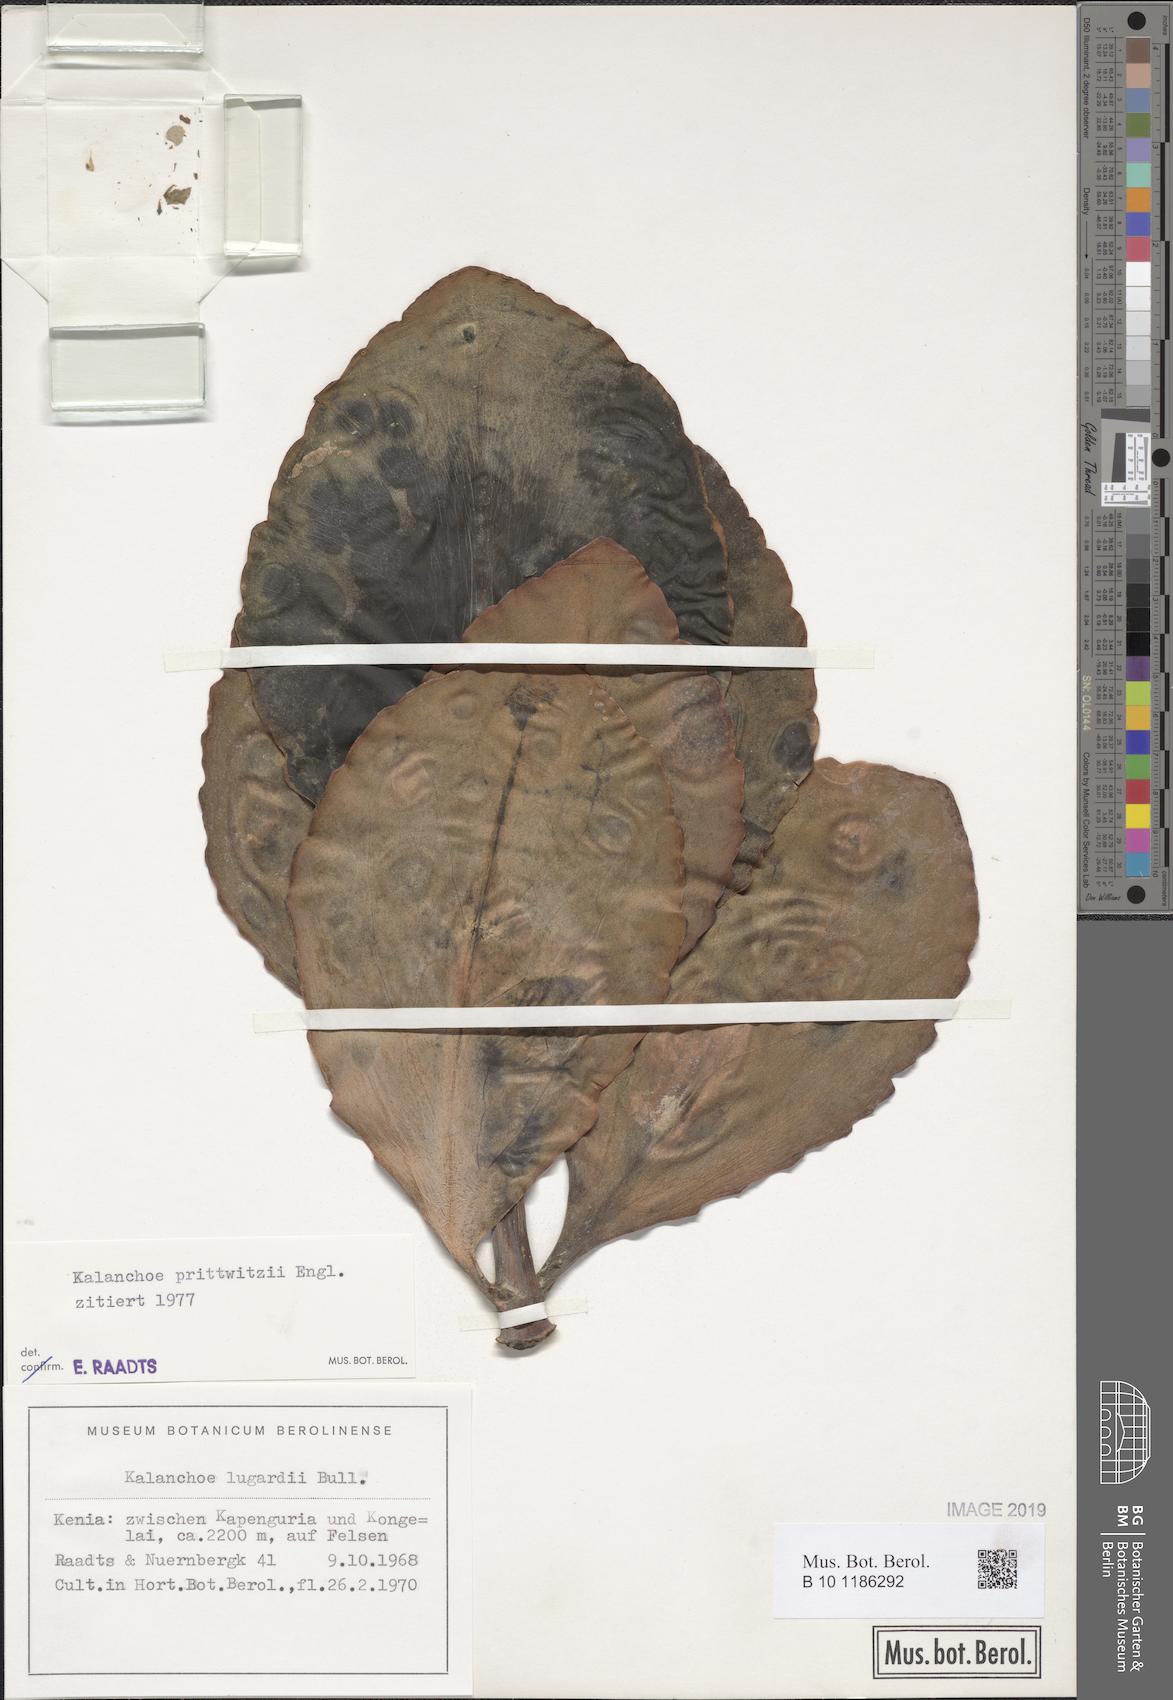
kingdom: Plantae
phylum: Tracheophyta
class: Magnoliopsida
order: Saxifragales
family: Crassulaceae
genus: Kalanchoe
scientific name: Kalanchoe prittwitzii
